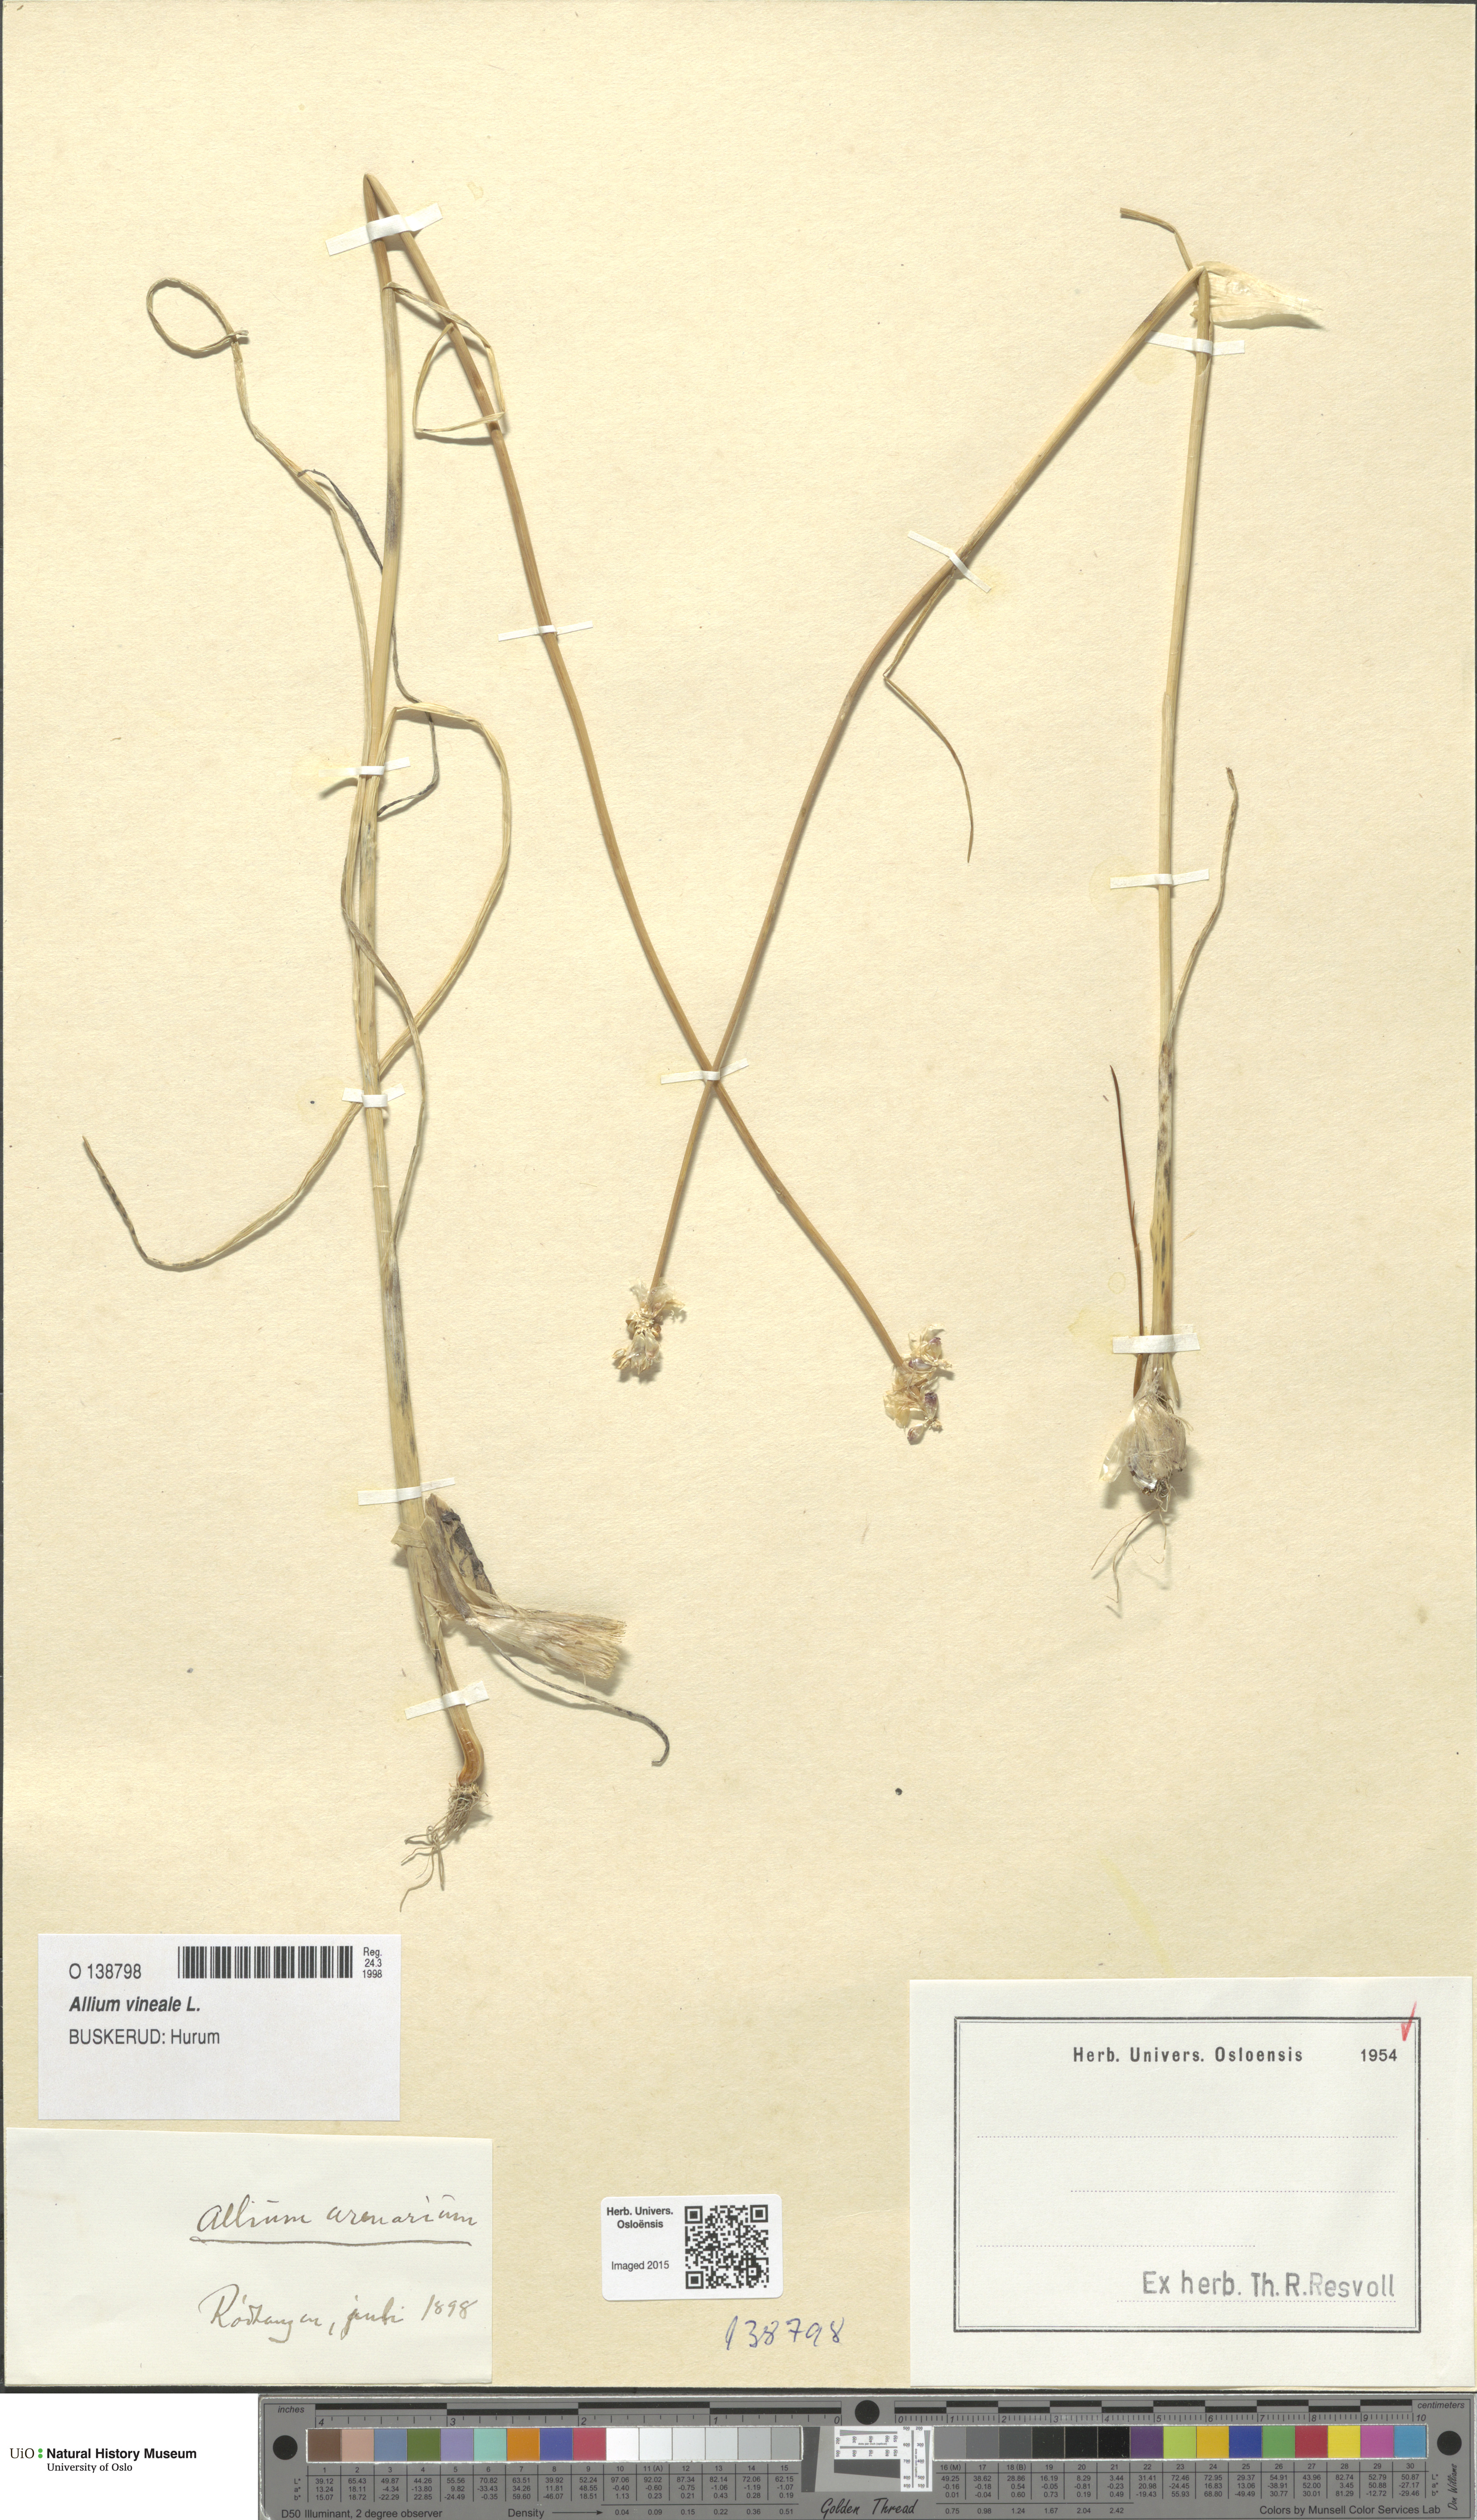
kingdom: Plantae
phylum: Tracheophyta
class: Liliopsida
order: Asparagales
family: Amaryllidaceae
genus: Allium
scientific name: Allium vineale
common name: Crow garlic
